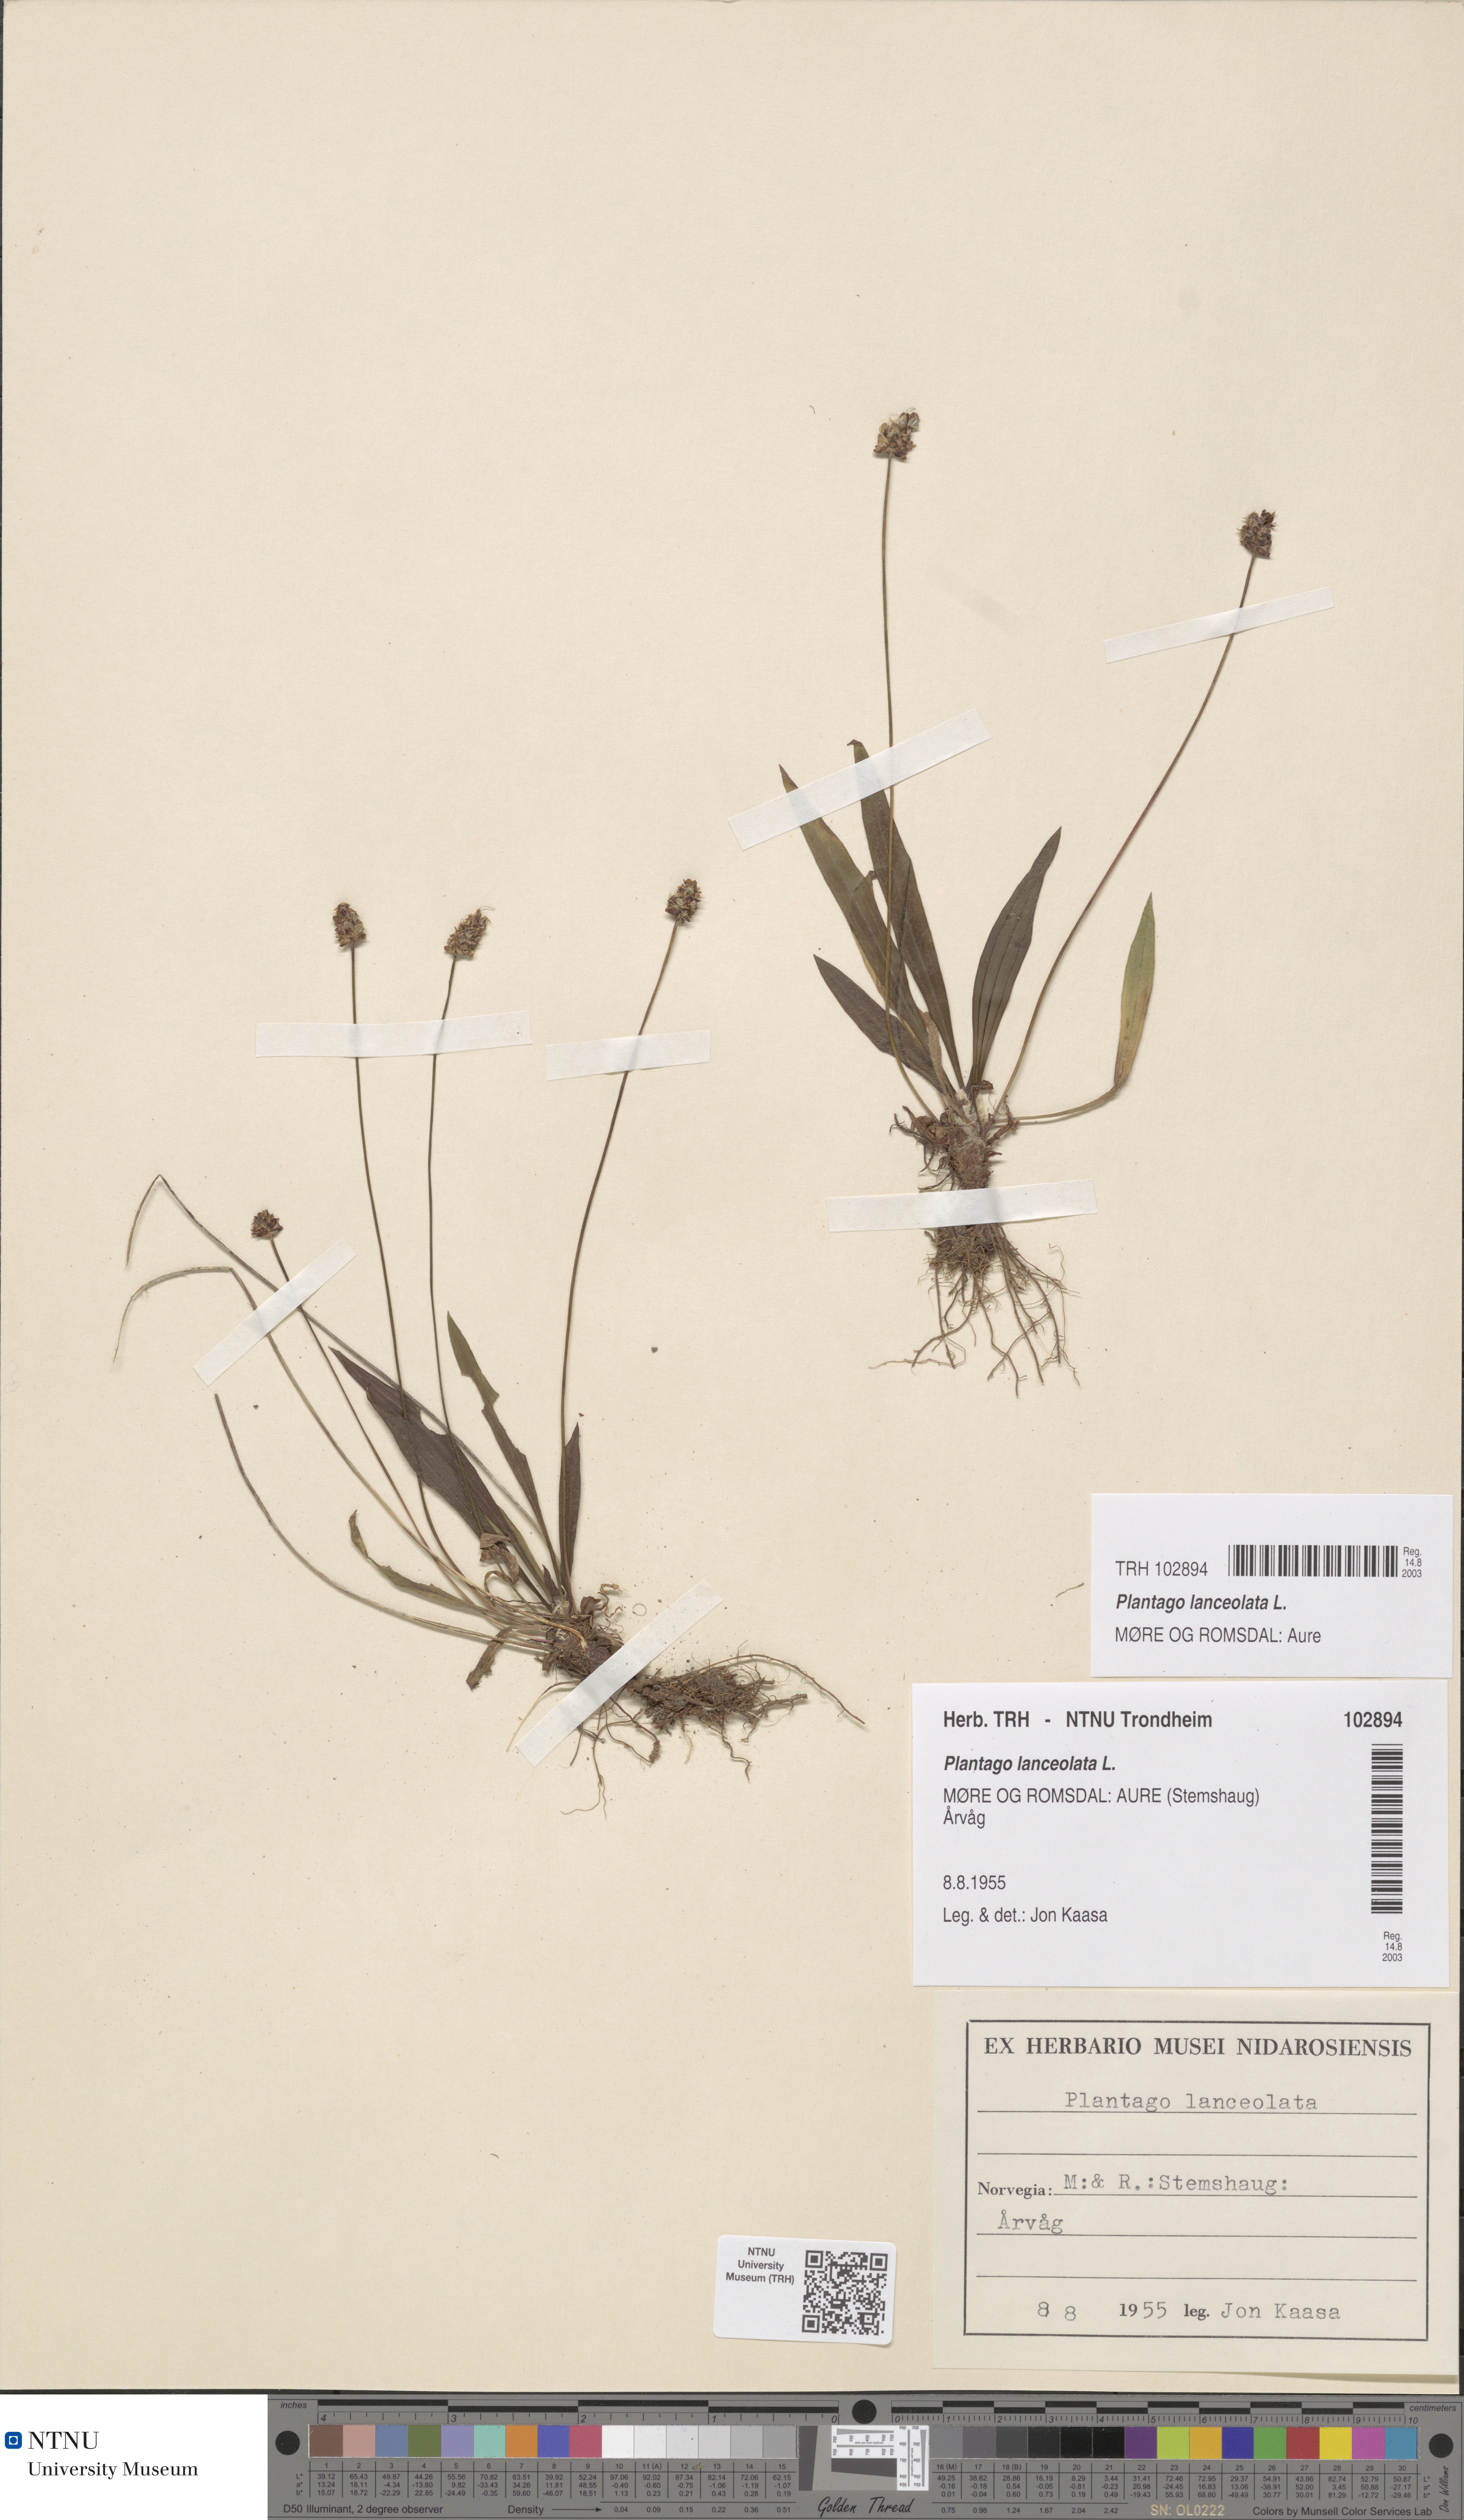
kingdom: Plantae
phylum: Tracheophyta
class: Magnoliopsida
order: Lamiales
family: Plantaginaceae
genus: Plantago
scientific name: Plantago lanceolata
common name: Ribwort plantain
